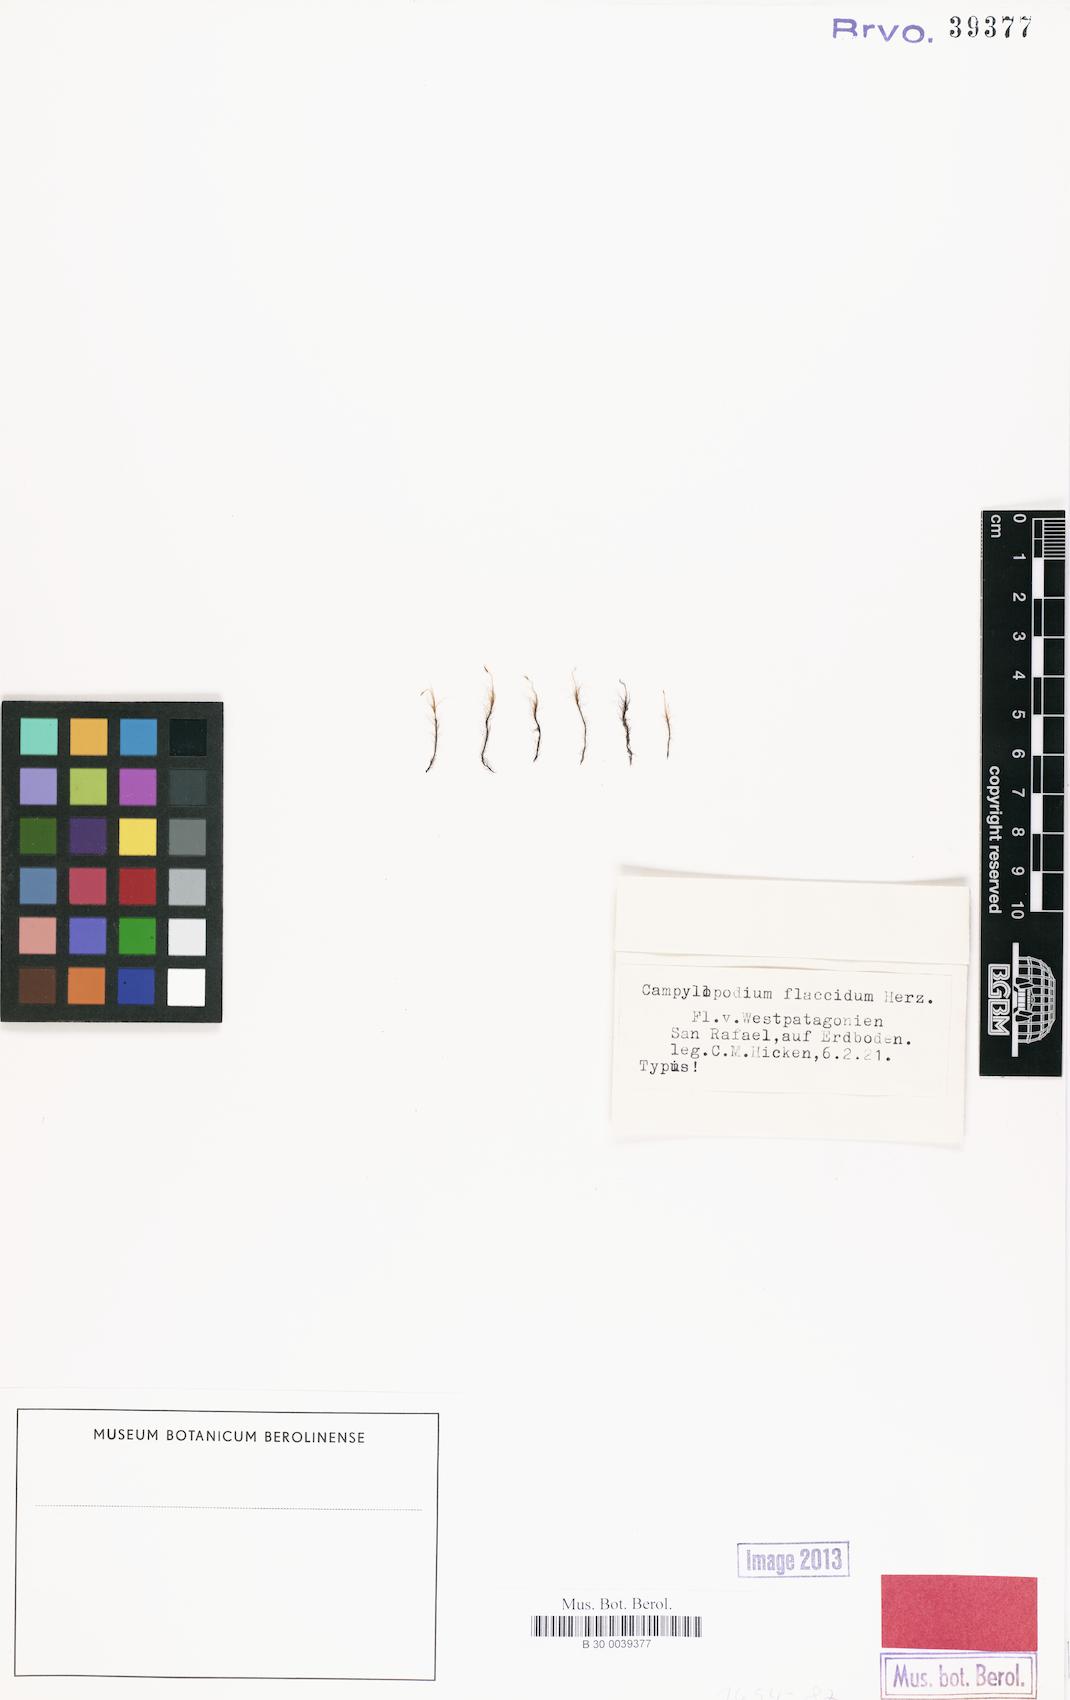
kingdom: Plantae
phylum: Bryophyta
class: Bryopsida
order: Dicranales
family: Dicranellaceae
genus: Campylopodium
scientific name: Campylopodium capillaceum
